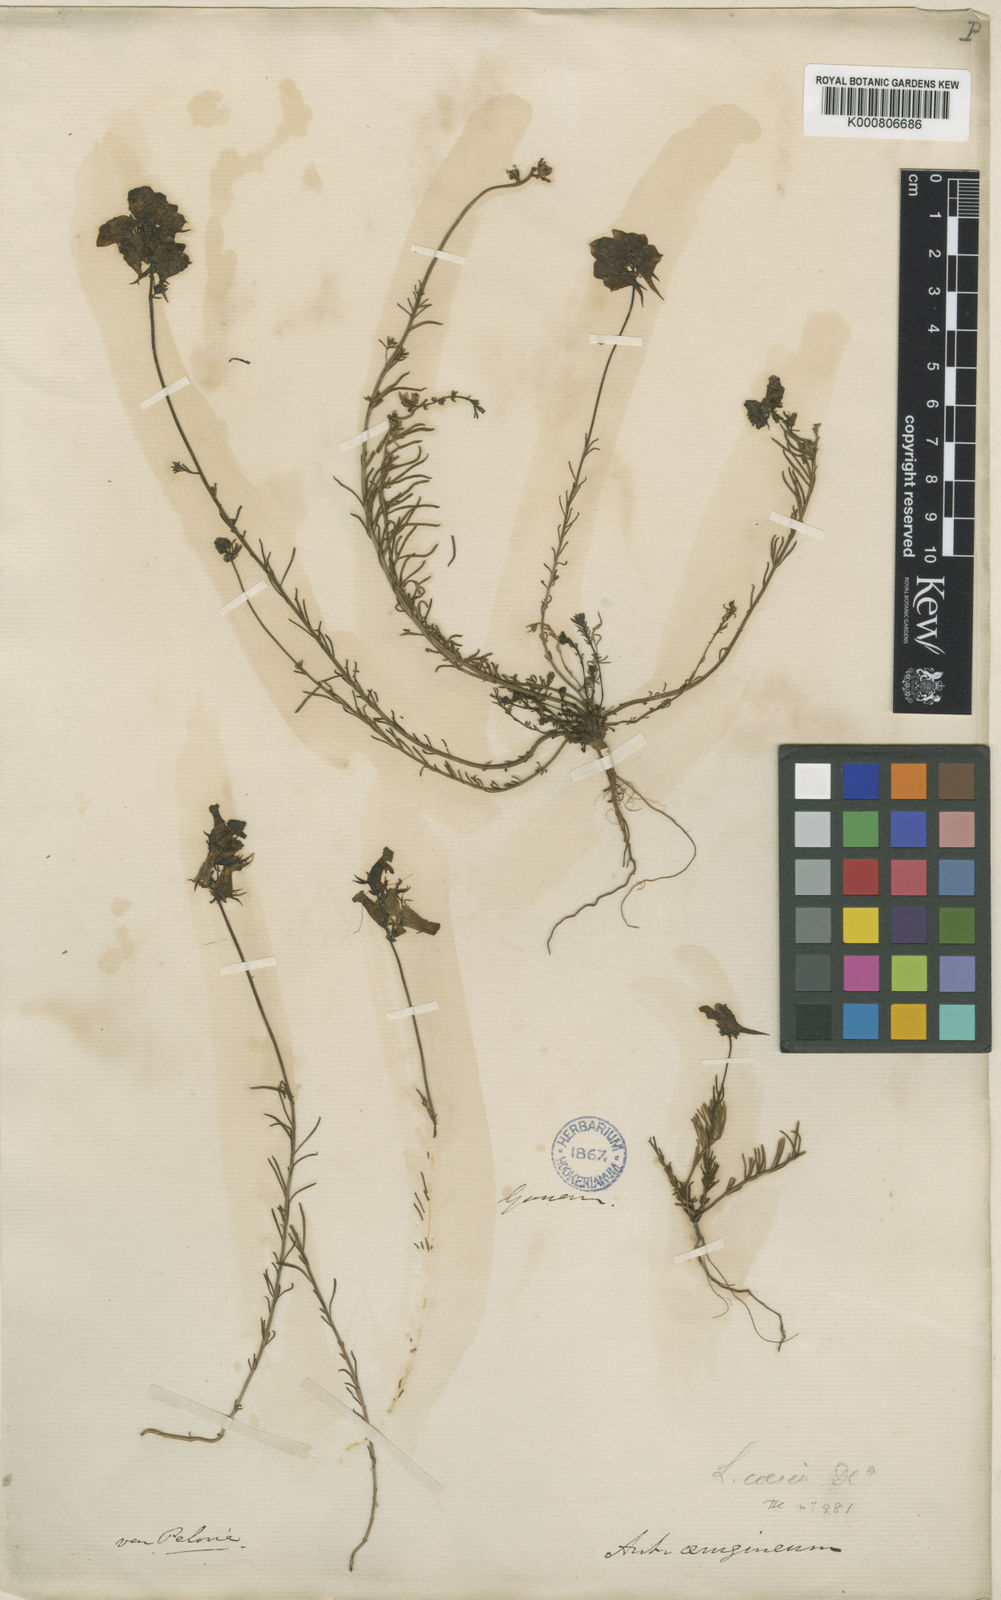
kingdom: Plantae
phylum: Tracheophyta
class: Magnoliopsida
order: Lamiales
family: Plantaginaceae
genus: Linaria
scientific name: Linaria aeruginea
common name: Roadside toadflax
